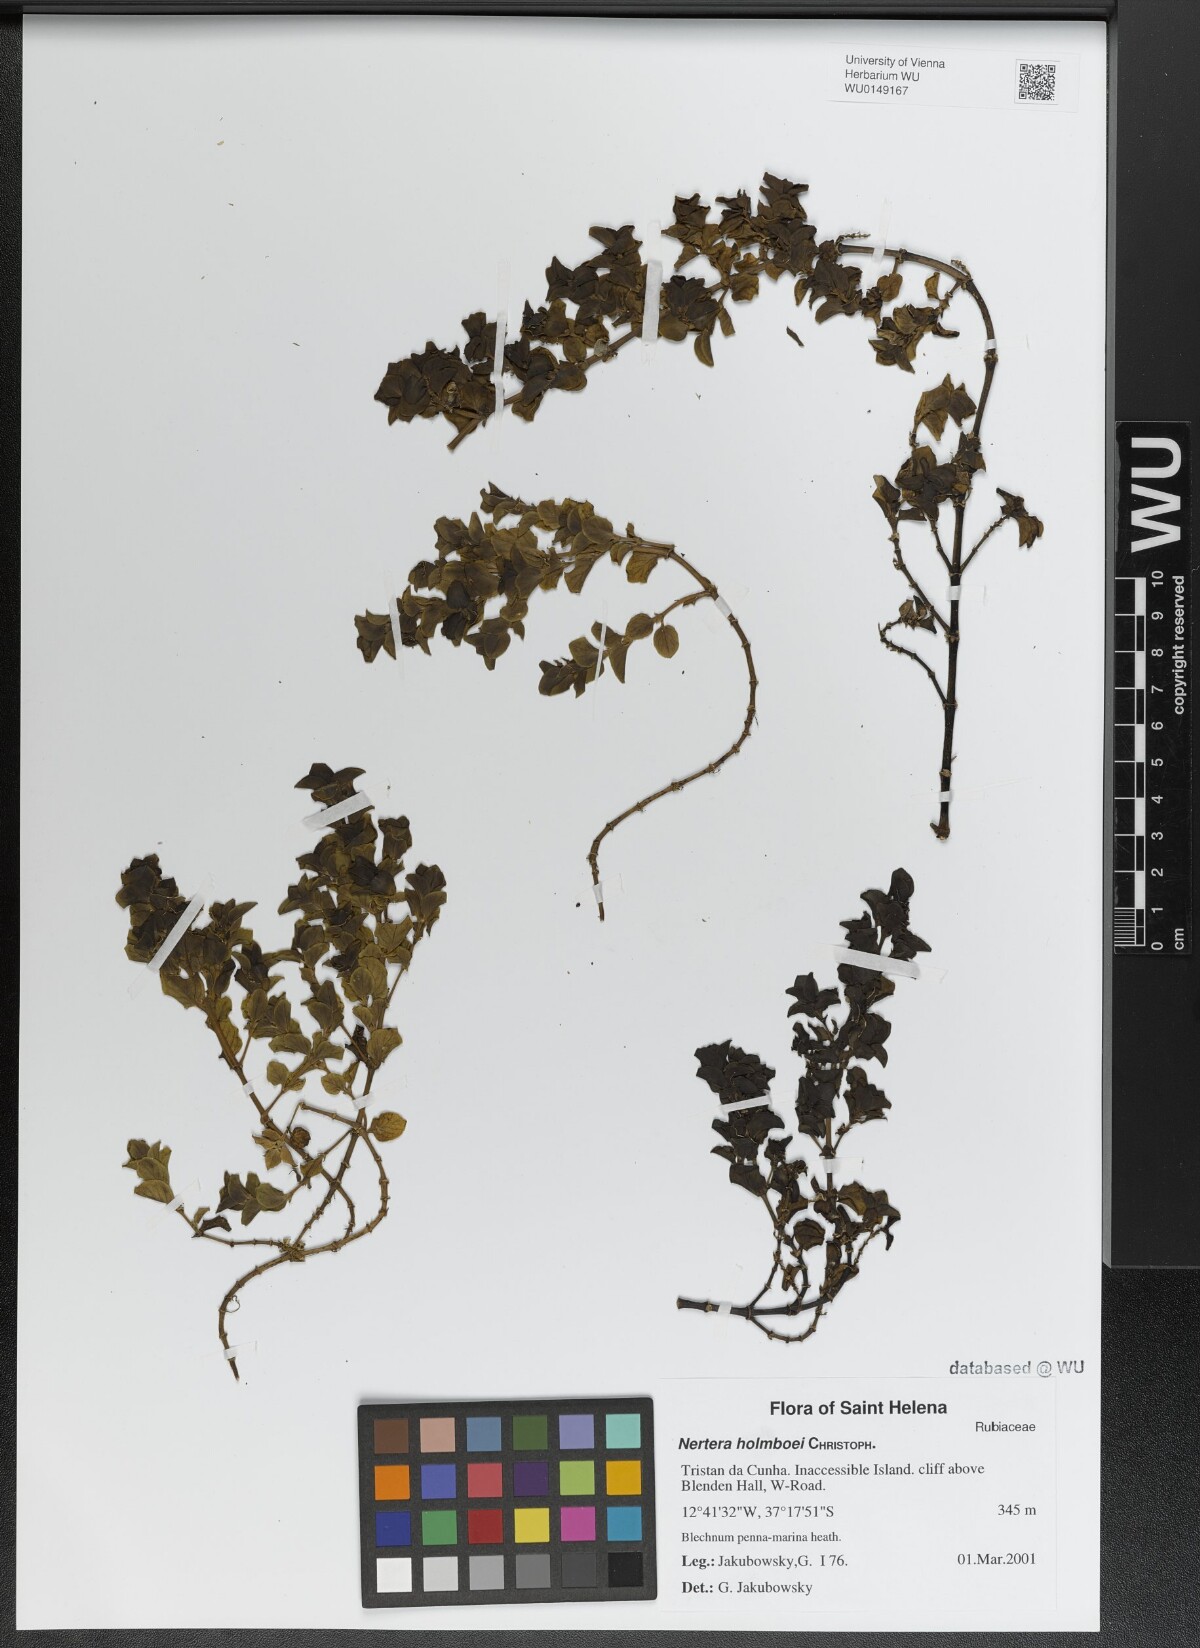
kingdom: Plantae
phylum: Tracheophyta
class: Magnoliopsida
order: Gentianales
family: Rubiaceae
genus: Nertera
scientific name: Nertera holmboei
